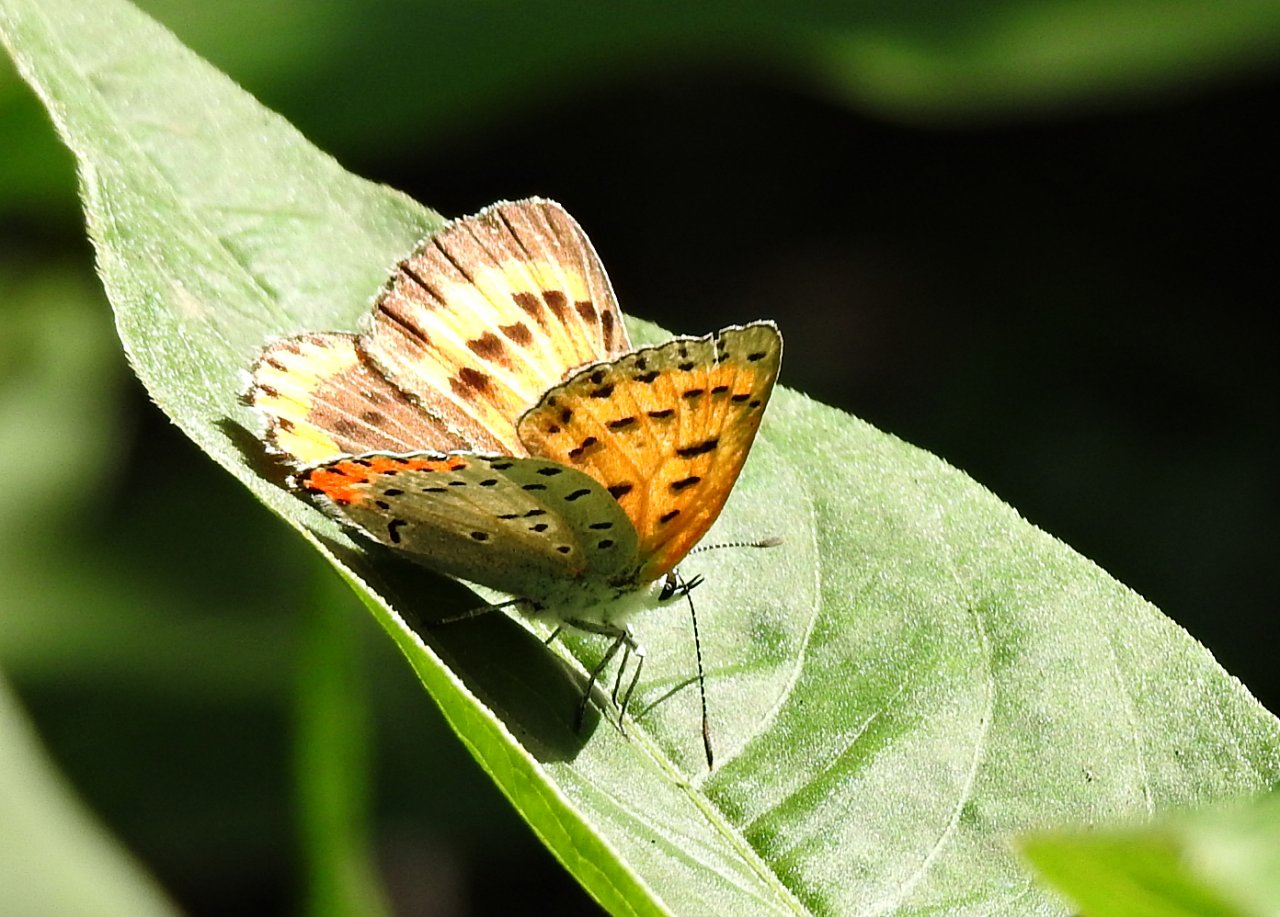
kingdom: Animalia
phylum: Arthropoda
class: Insecta
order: Lepidoptera
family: Sesiidae
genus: Sesia
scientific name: Sesia Lycaena hyllus
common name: Bronze Copper
